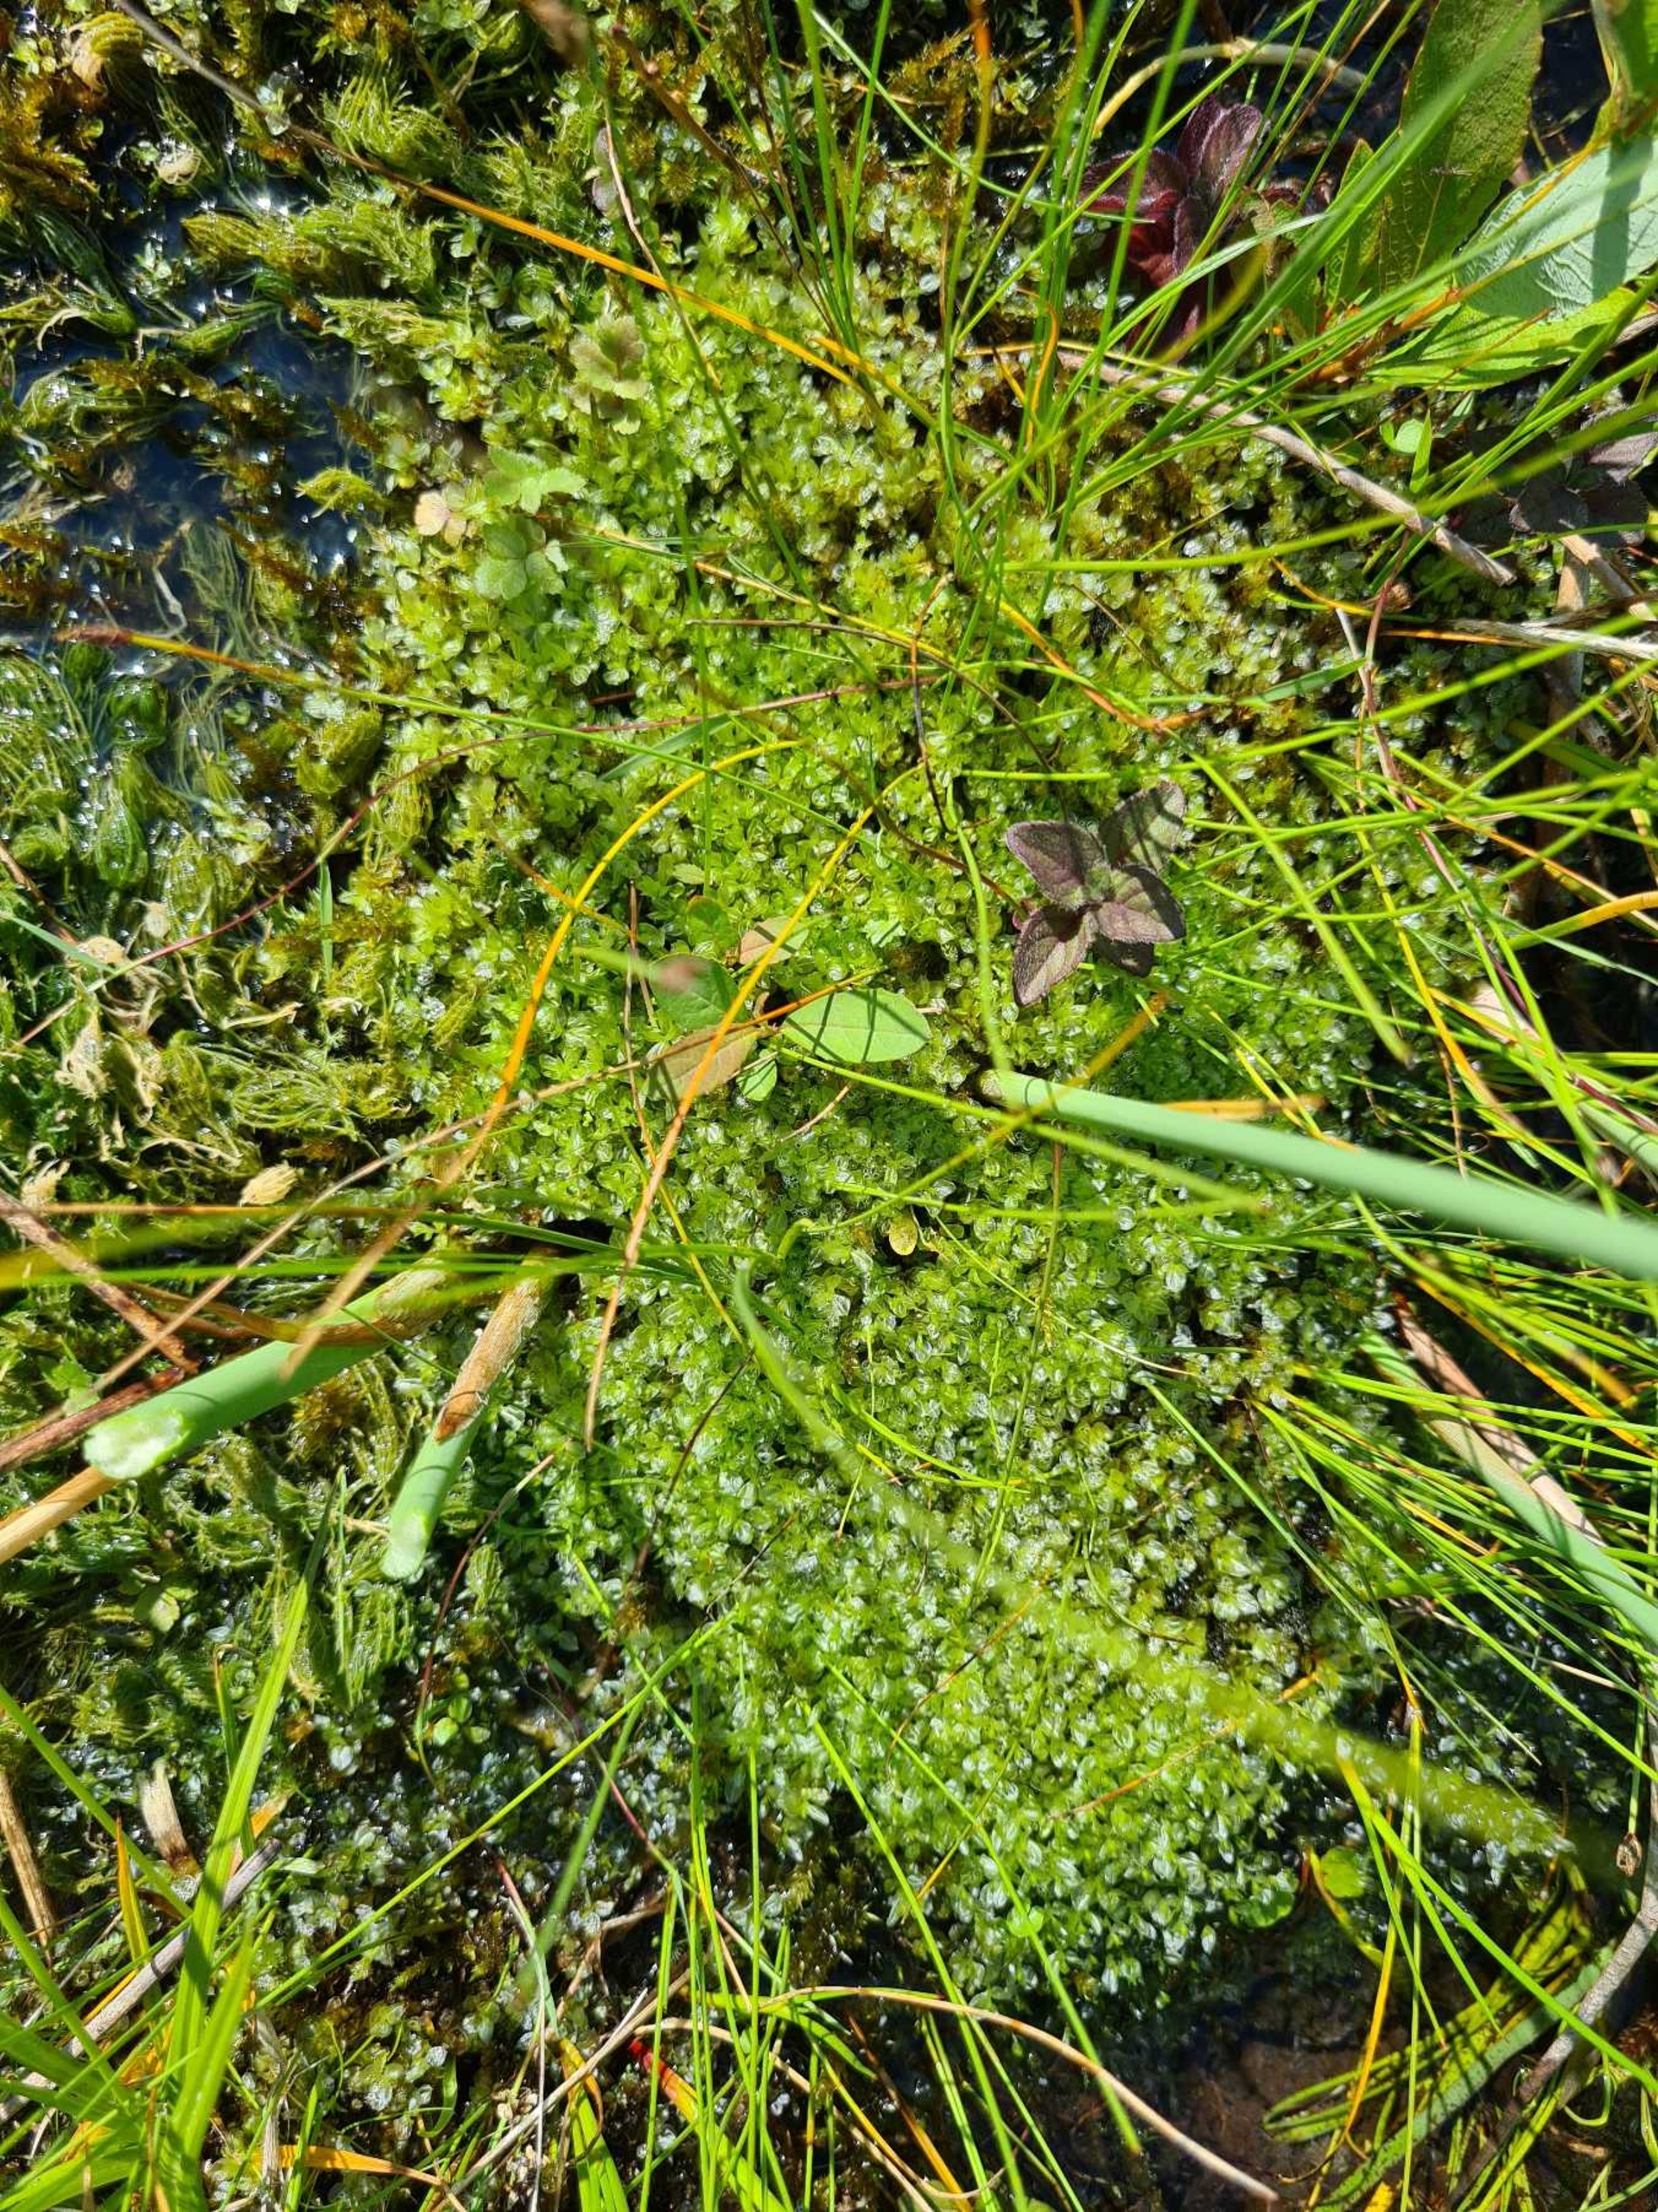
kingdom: Plantae
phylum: Bryophyta
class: Bryopsida
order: Bryales
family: Mniaceae
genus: Cinclidium
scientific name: Cinclidium stygium
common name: Kær-gittermos
